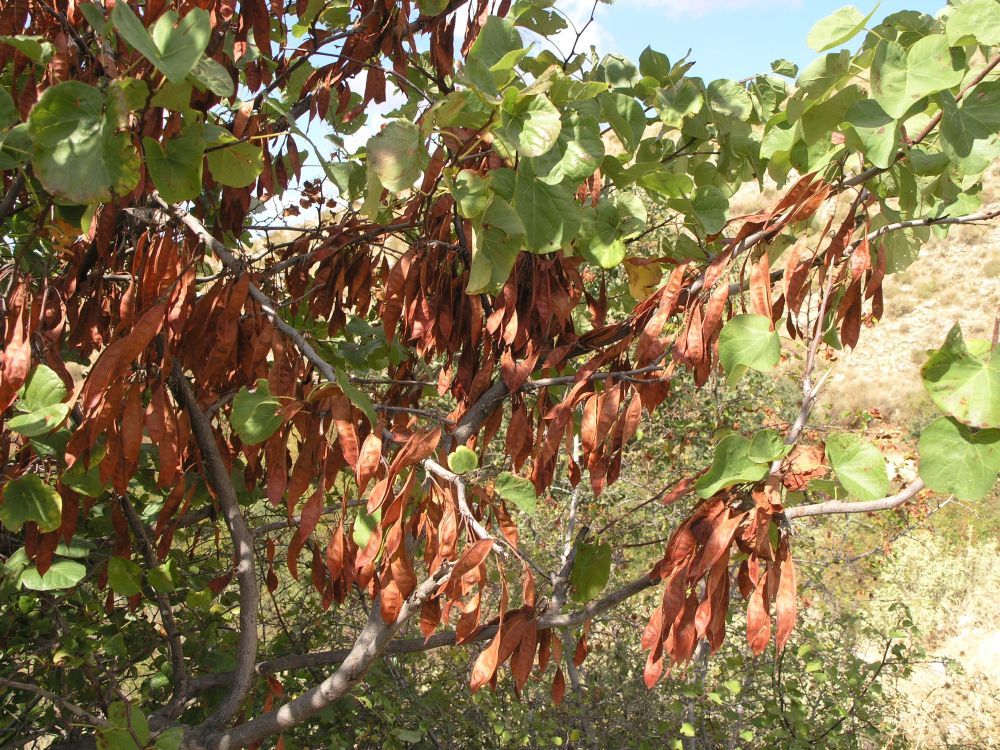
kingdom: Plantae
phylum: Tracheophyta
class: Magnoliopsida
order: Fabales
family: Fabaceae
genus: Cercis
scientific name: Cercis siliquastrum
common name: Judas tree
